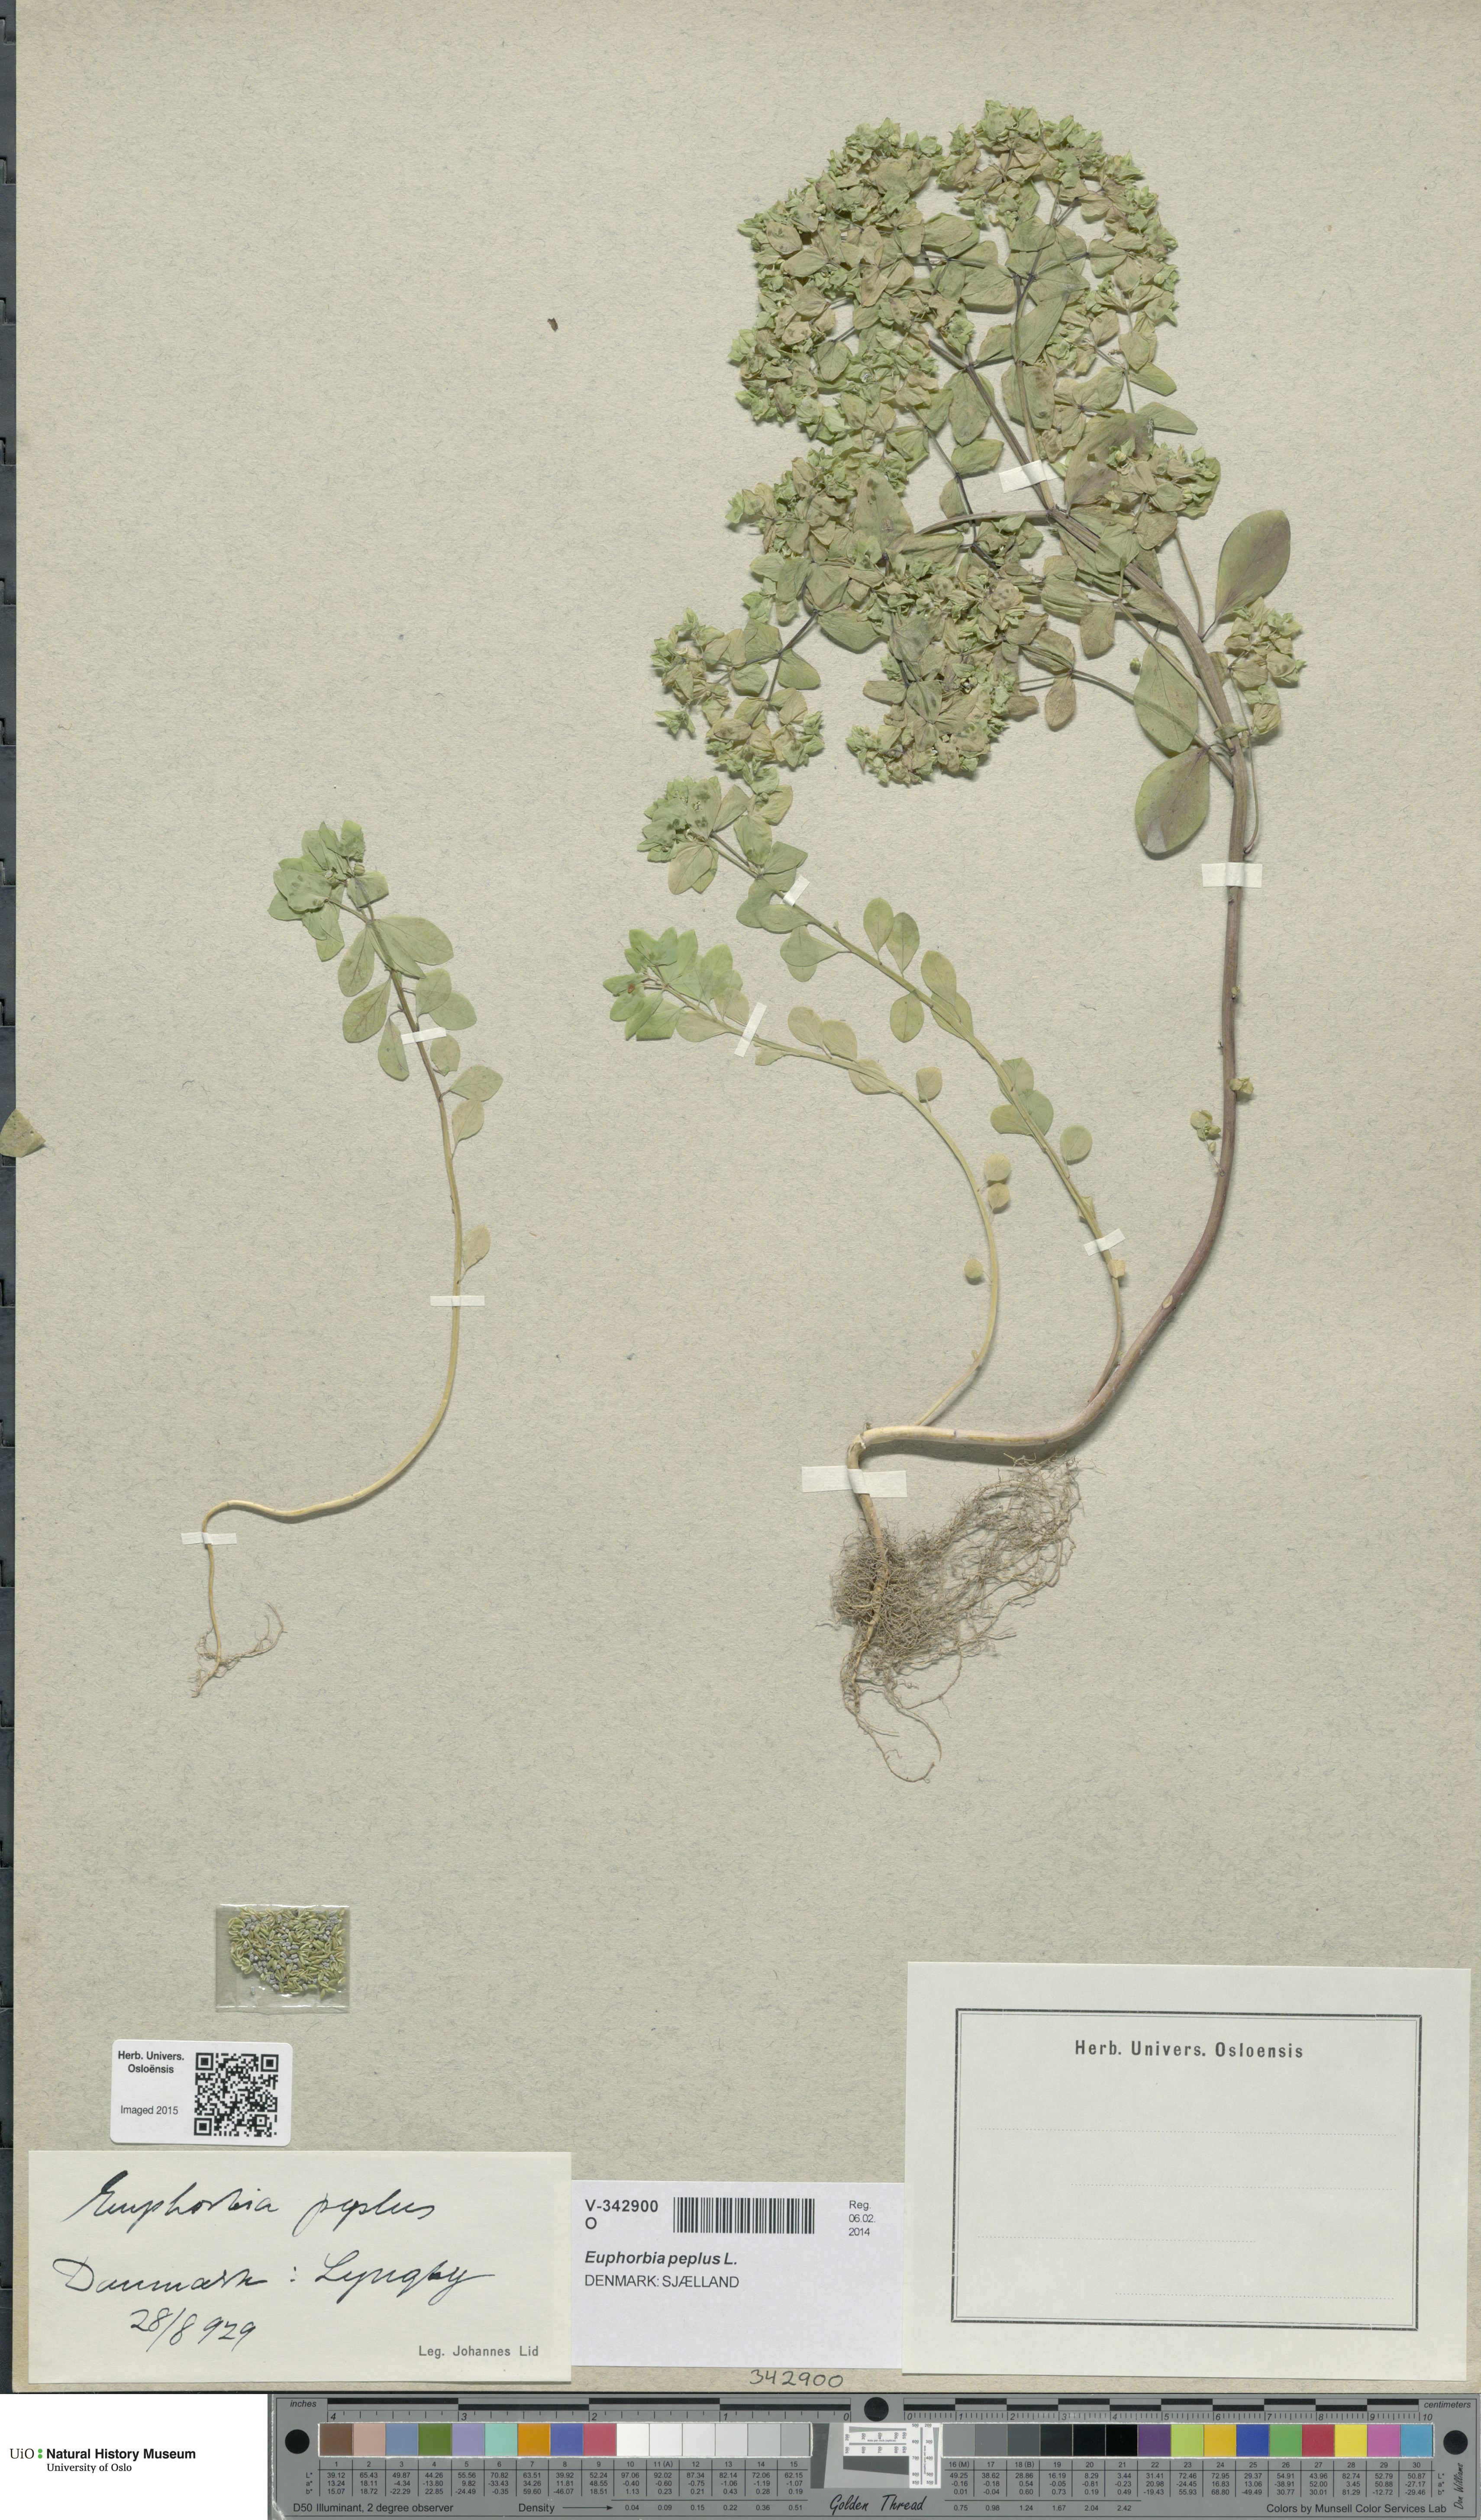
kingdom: Plantae
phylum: Tracheophyta
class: Magnoliopsida
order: Malpighiales
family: Euphorbiaceae
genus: Euphorbia
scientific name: Euphorbia peplus
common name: Petty spurge
